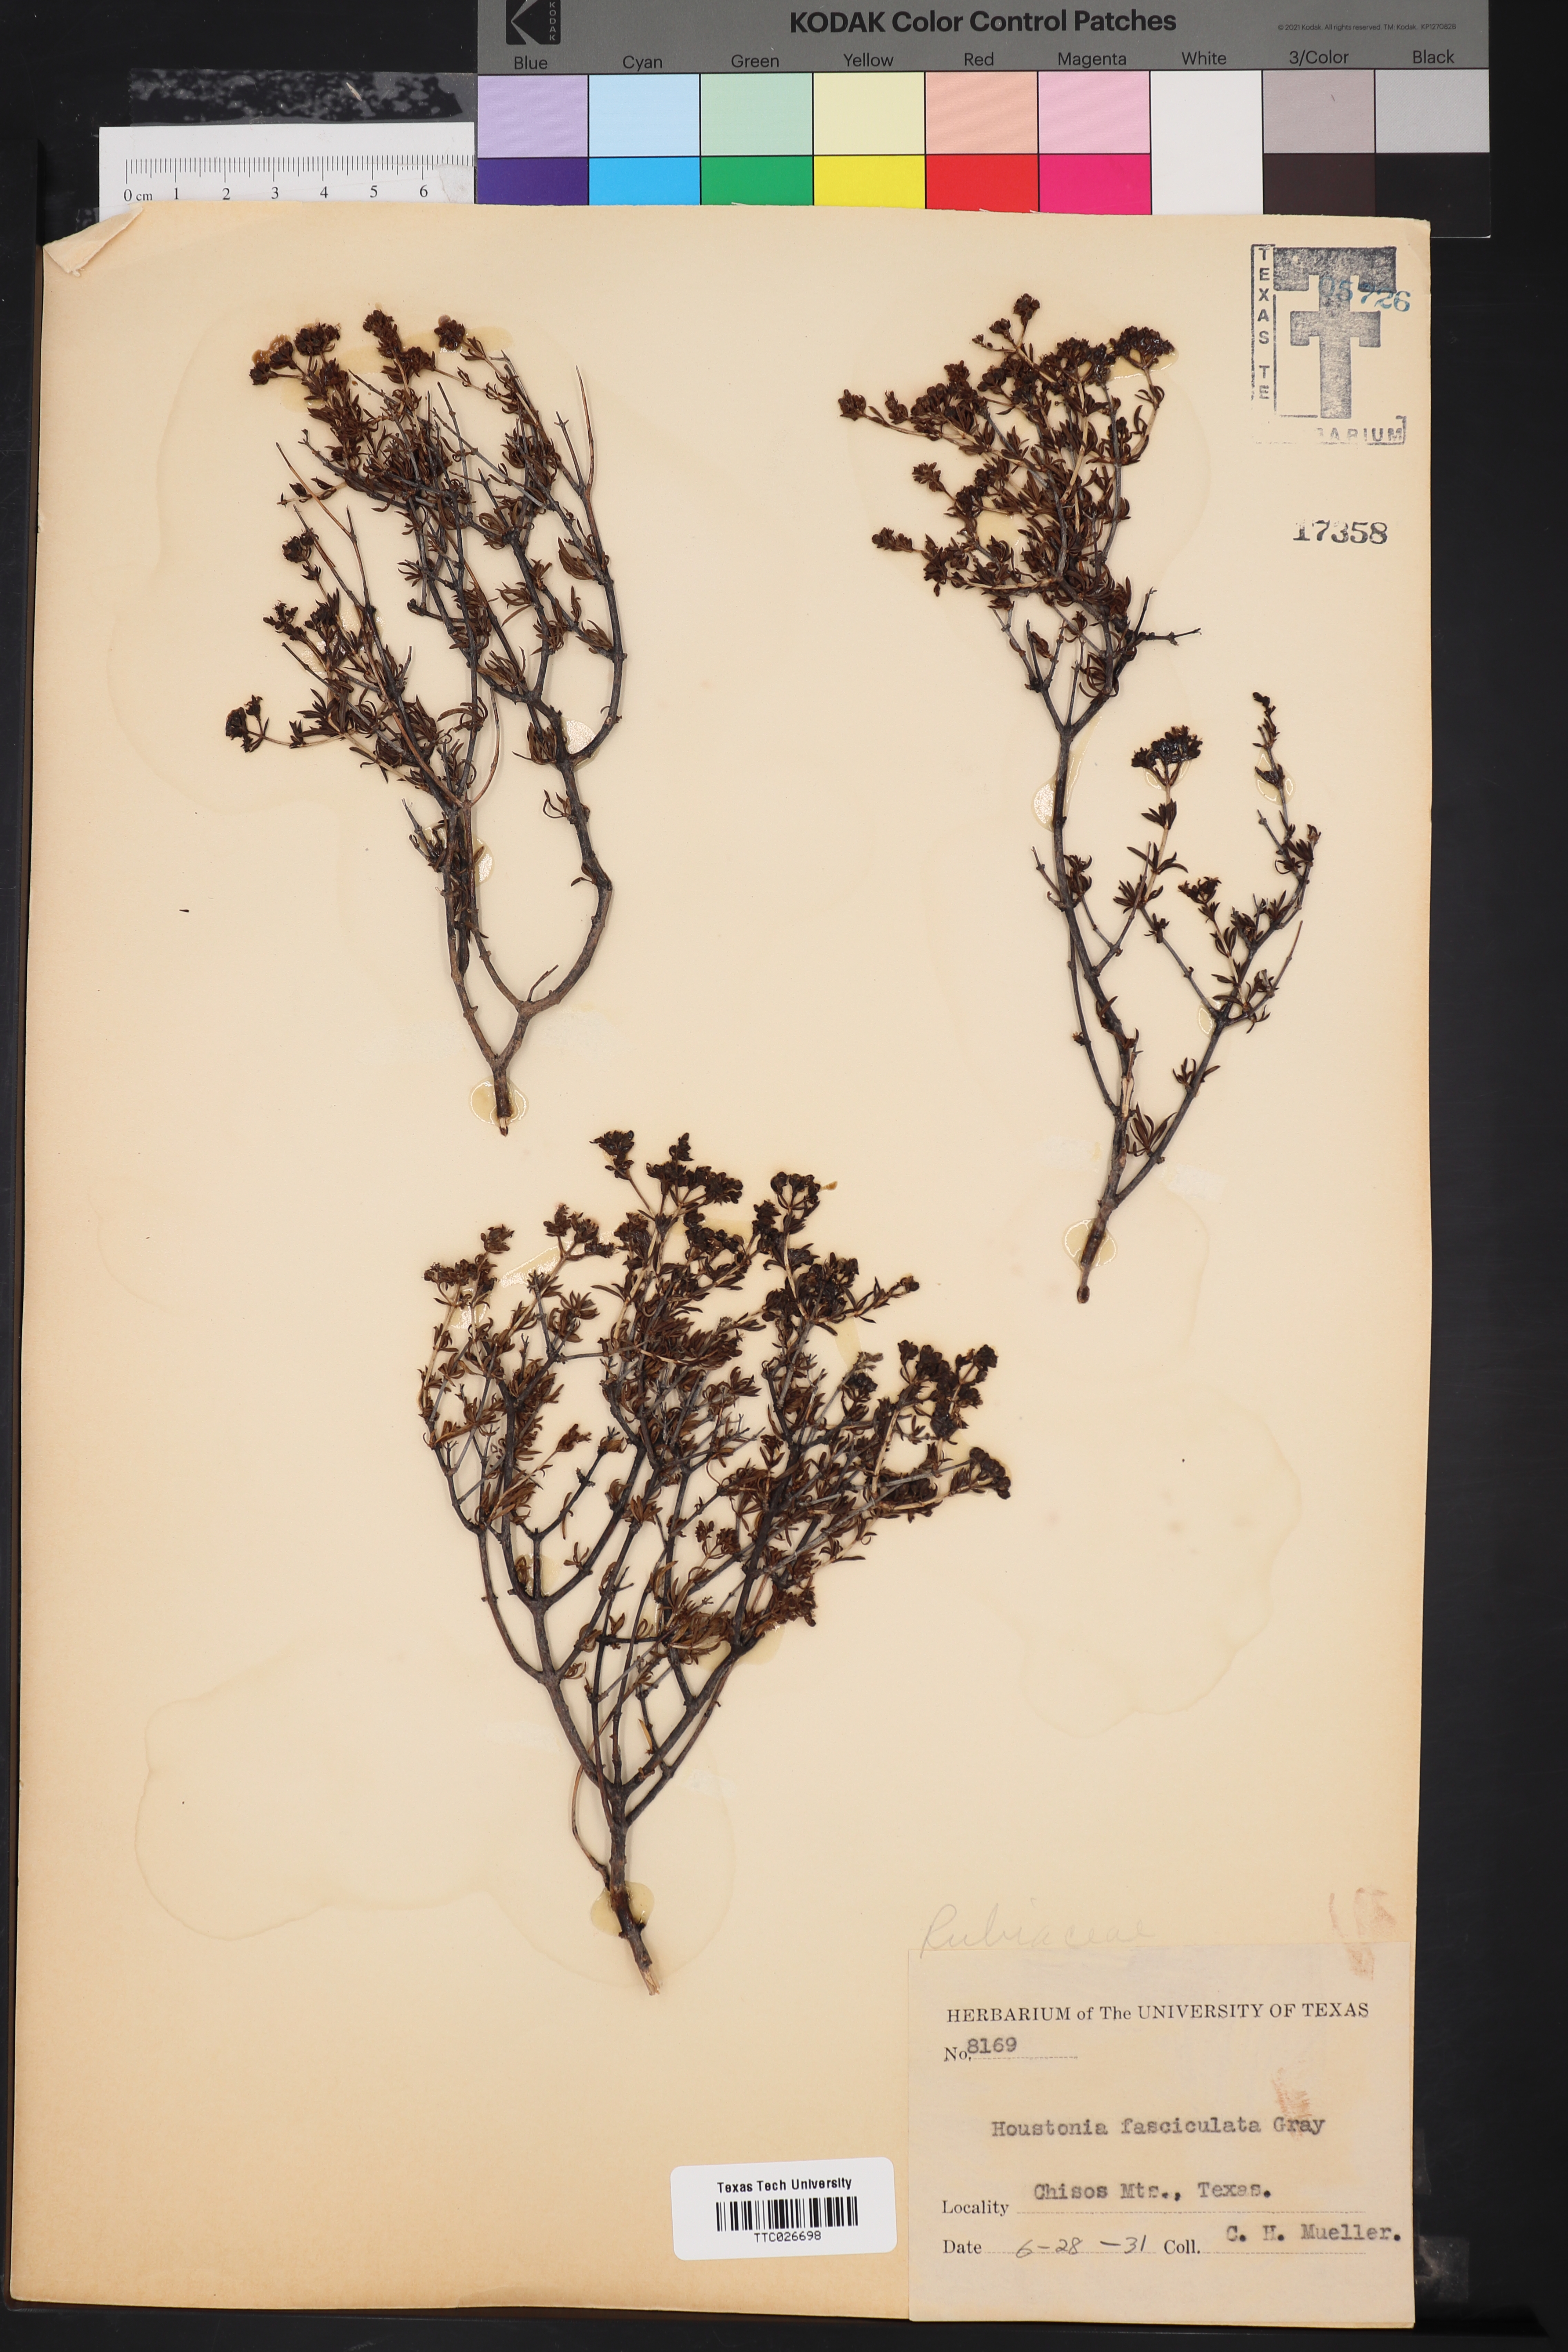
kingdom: Plantae
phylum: Tracheophyta
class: Magnoliopsida
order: Gentianales
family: Rubiaceae
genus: Arcytophyllum
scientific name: Arcytophyllum fasciculatum
